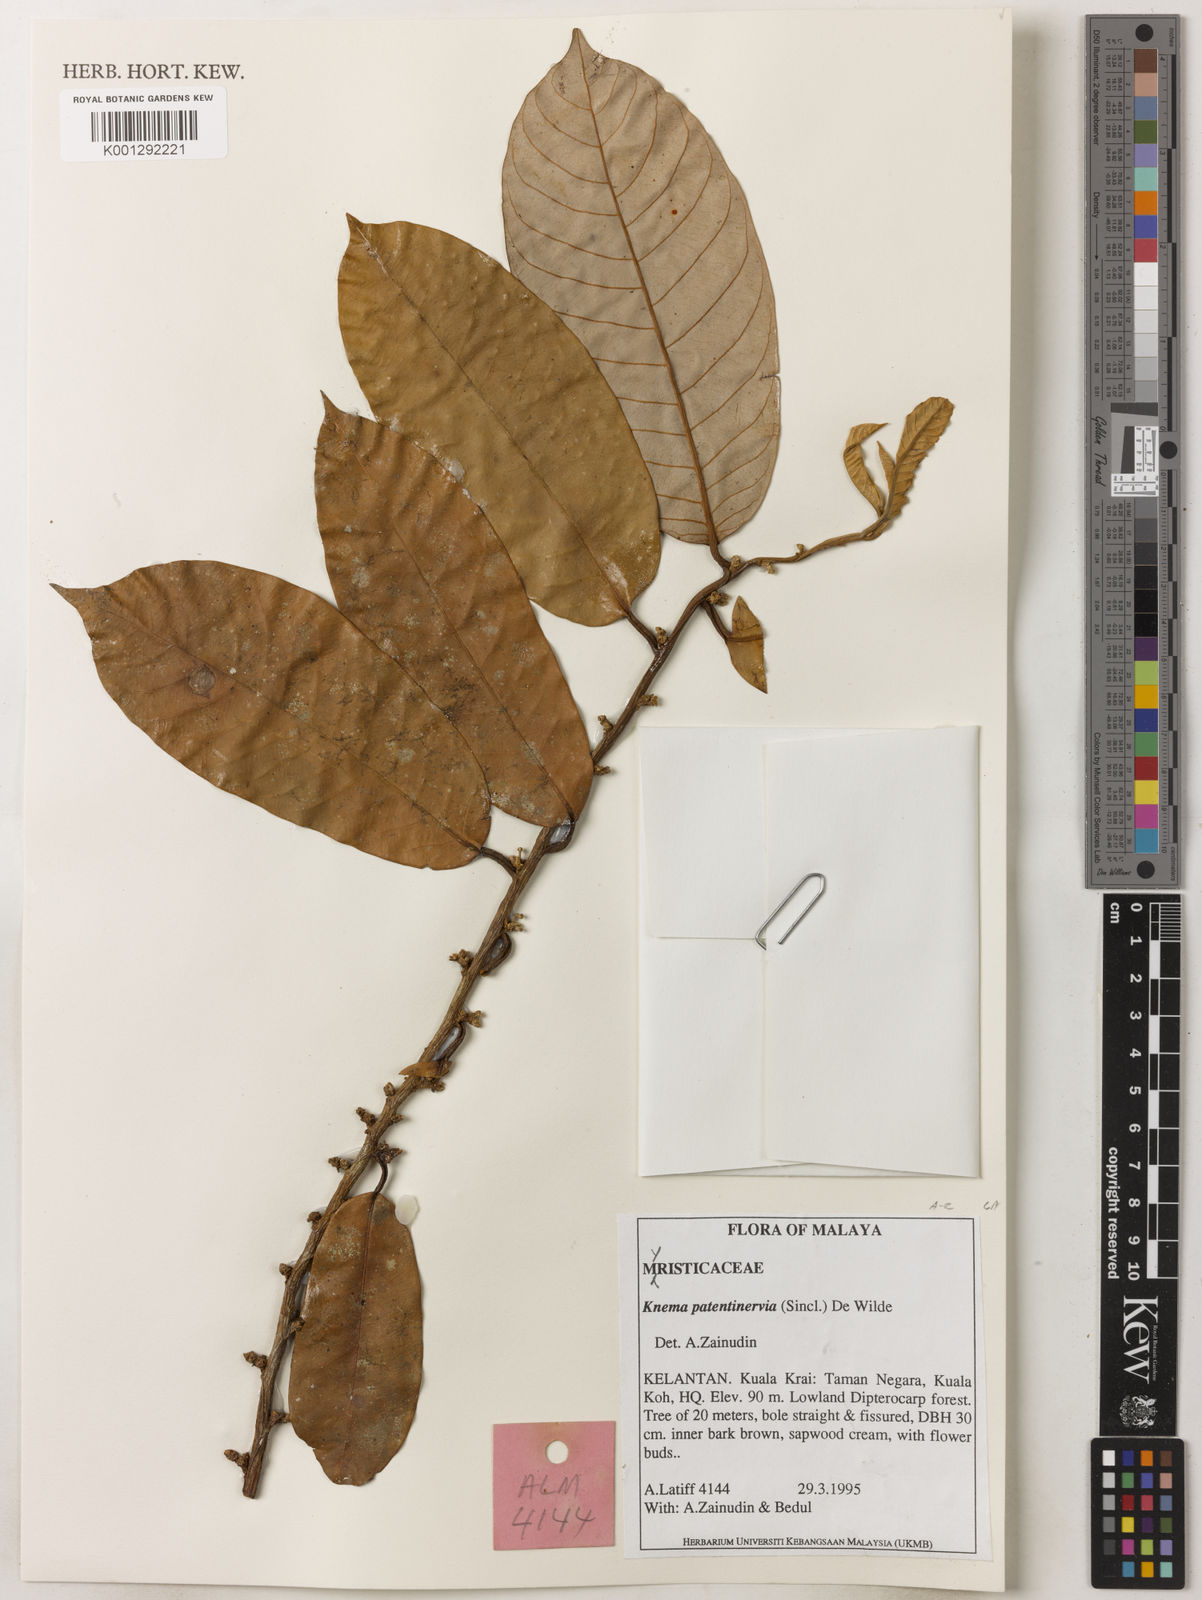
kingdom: Plantae
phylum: Tracheophyta
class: Magnoliopsida
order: Magnoliales
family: Myristicaceae
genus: Knema
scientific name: Knema patentinervia
